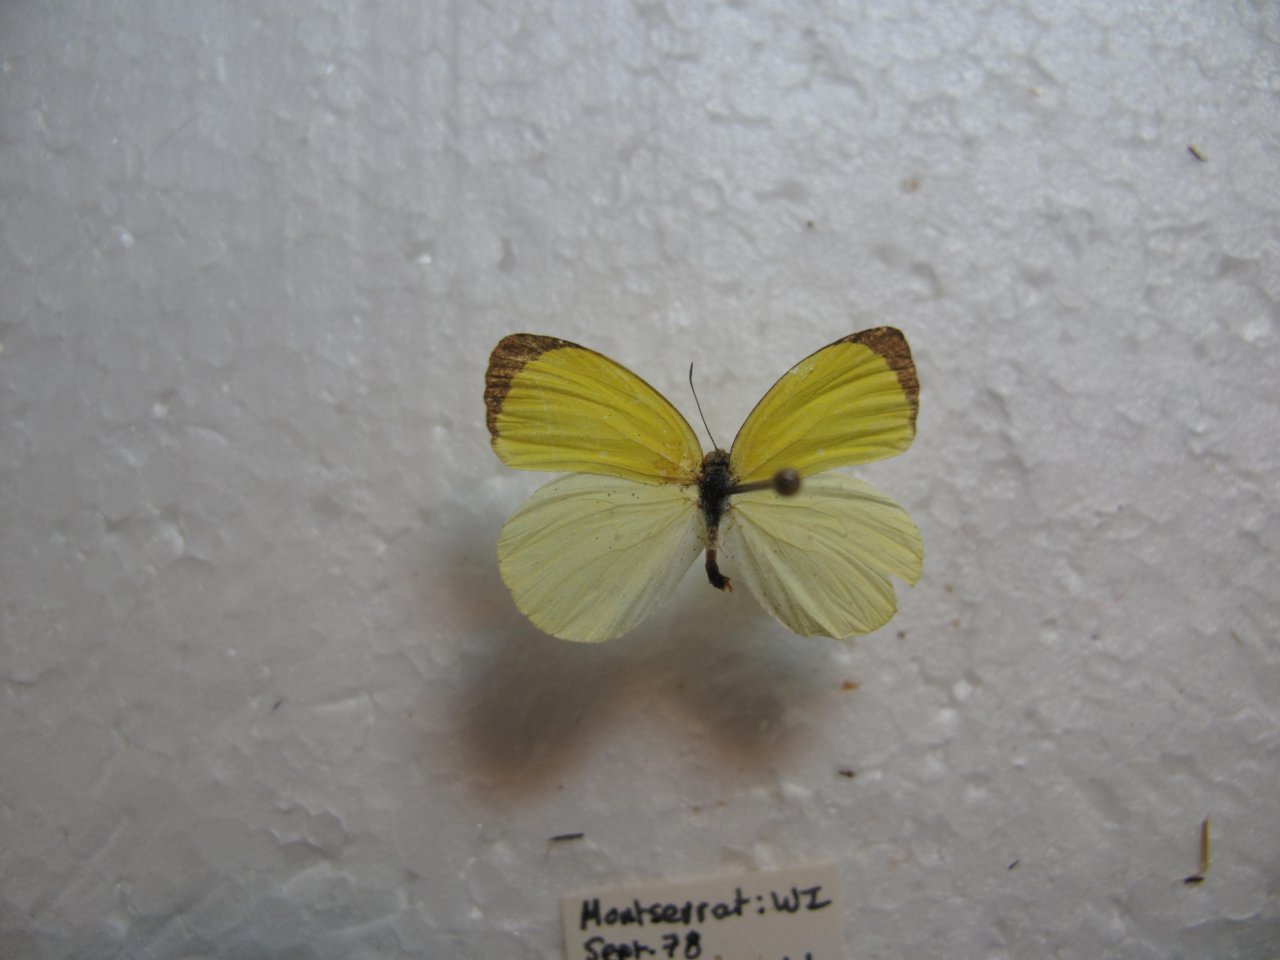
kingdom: Animalia
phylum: Arthropoda
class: Insecta
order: Lepidoptera
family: Pieridae
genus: Pyrisitia
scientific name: Pyrisitia venusta
